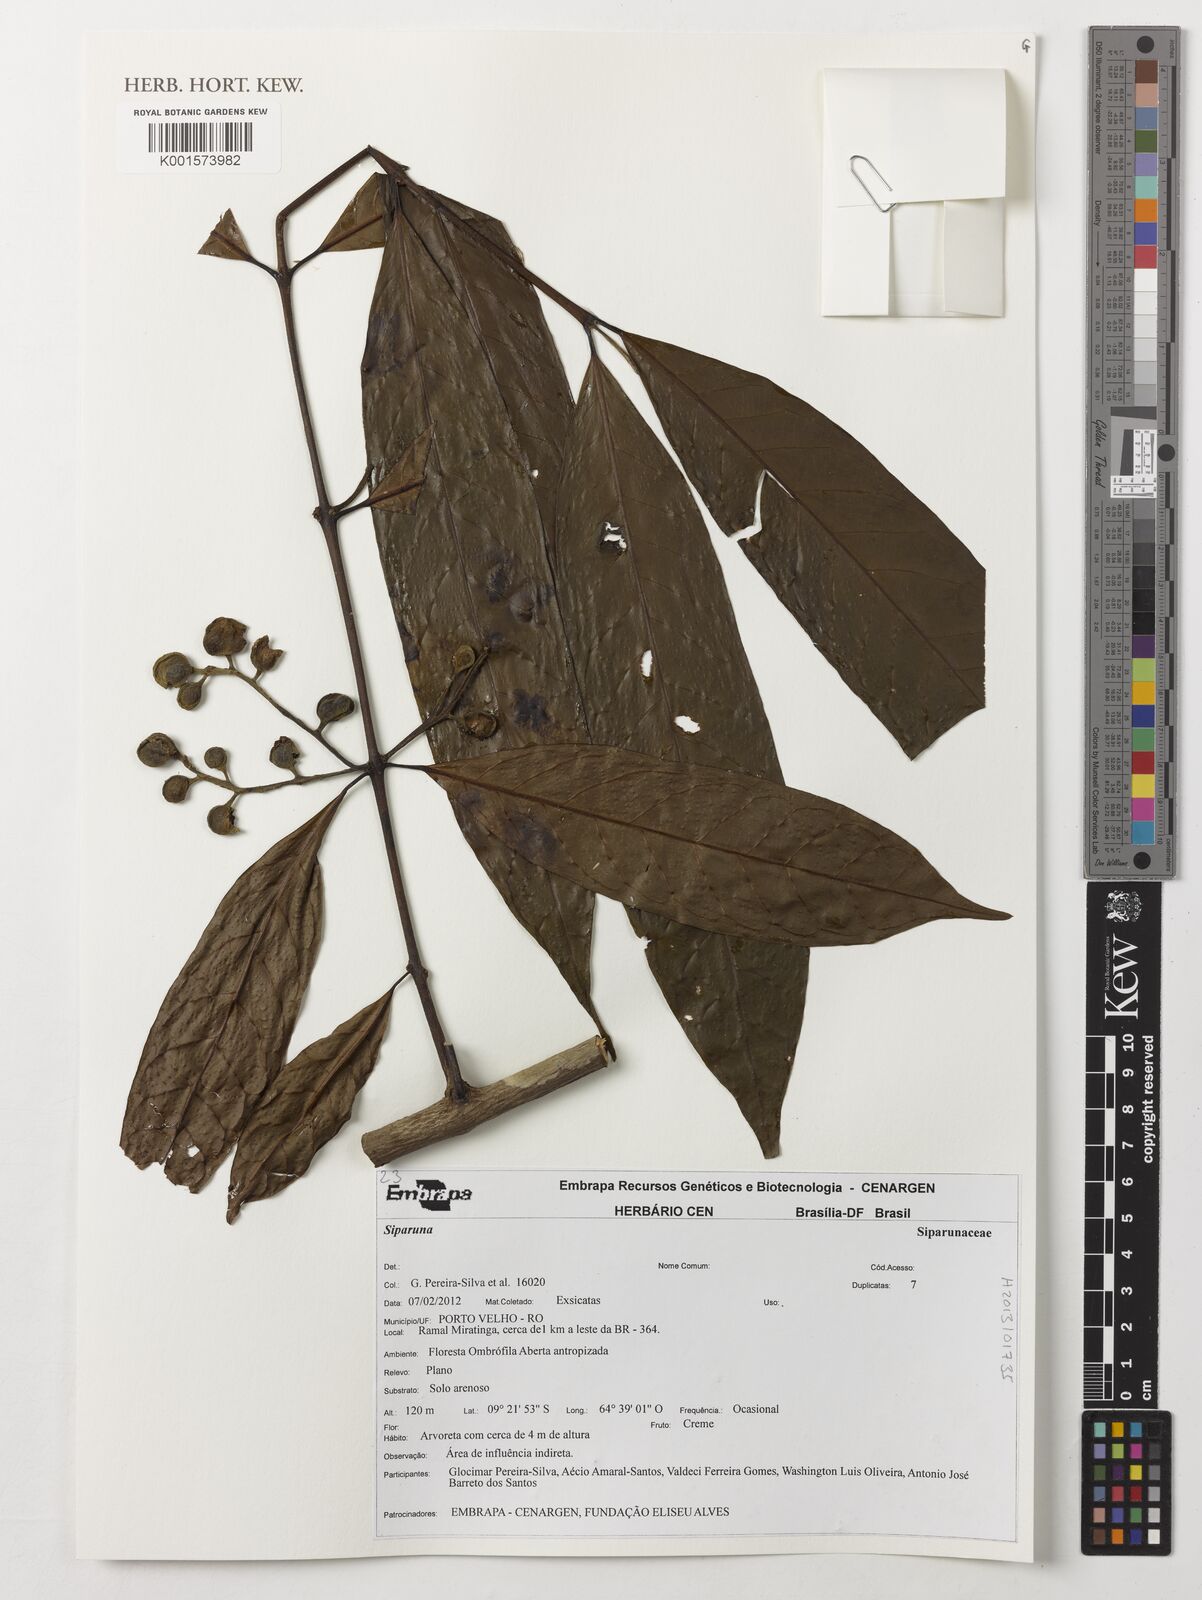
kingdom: Plantae
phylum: Tracheophyta
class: Magnoliopsida
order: Laurales
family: Siparunaceae
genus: Siparuna
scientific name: Siparuna
